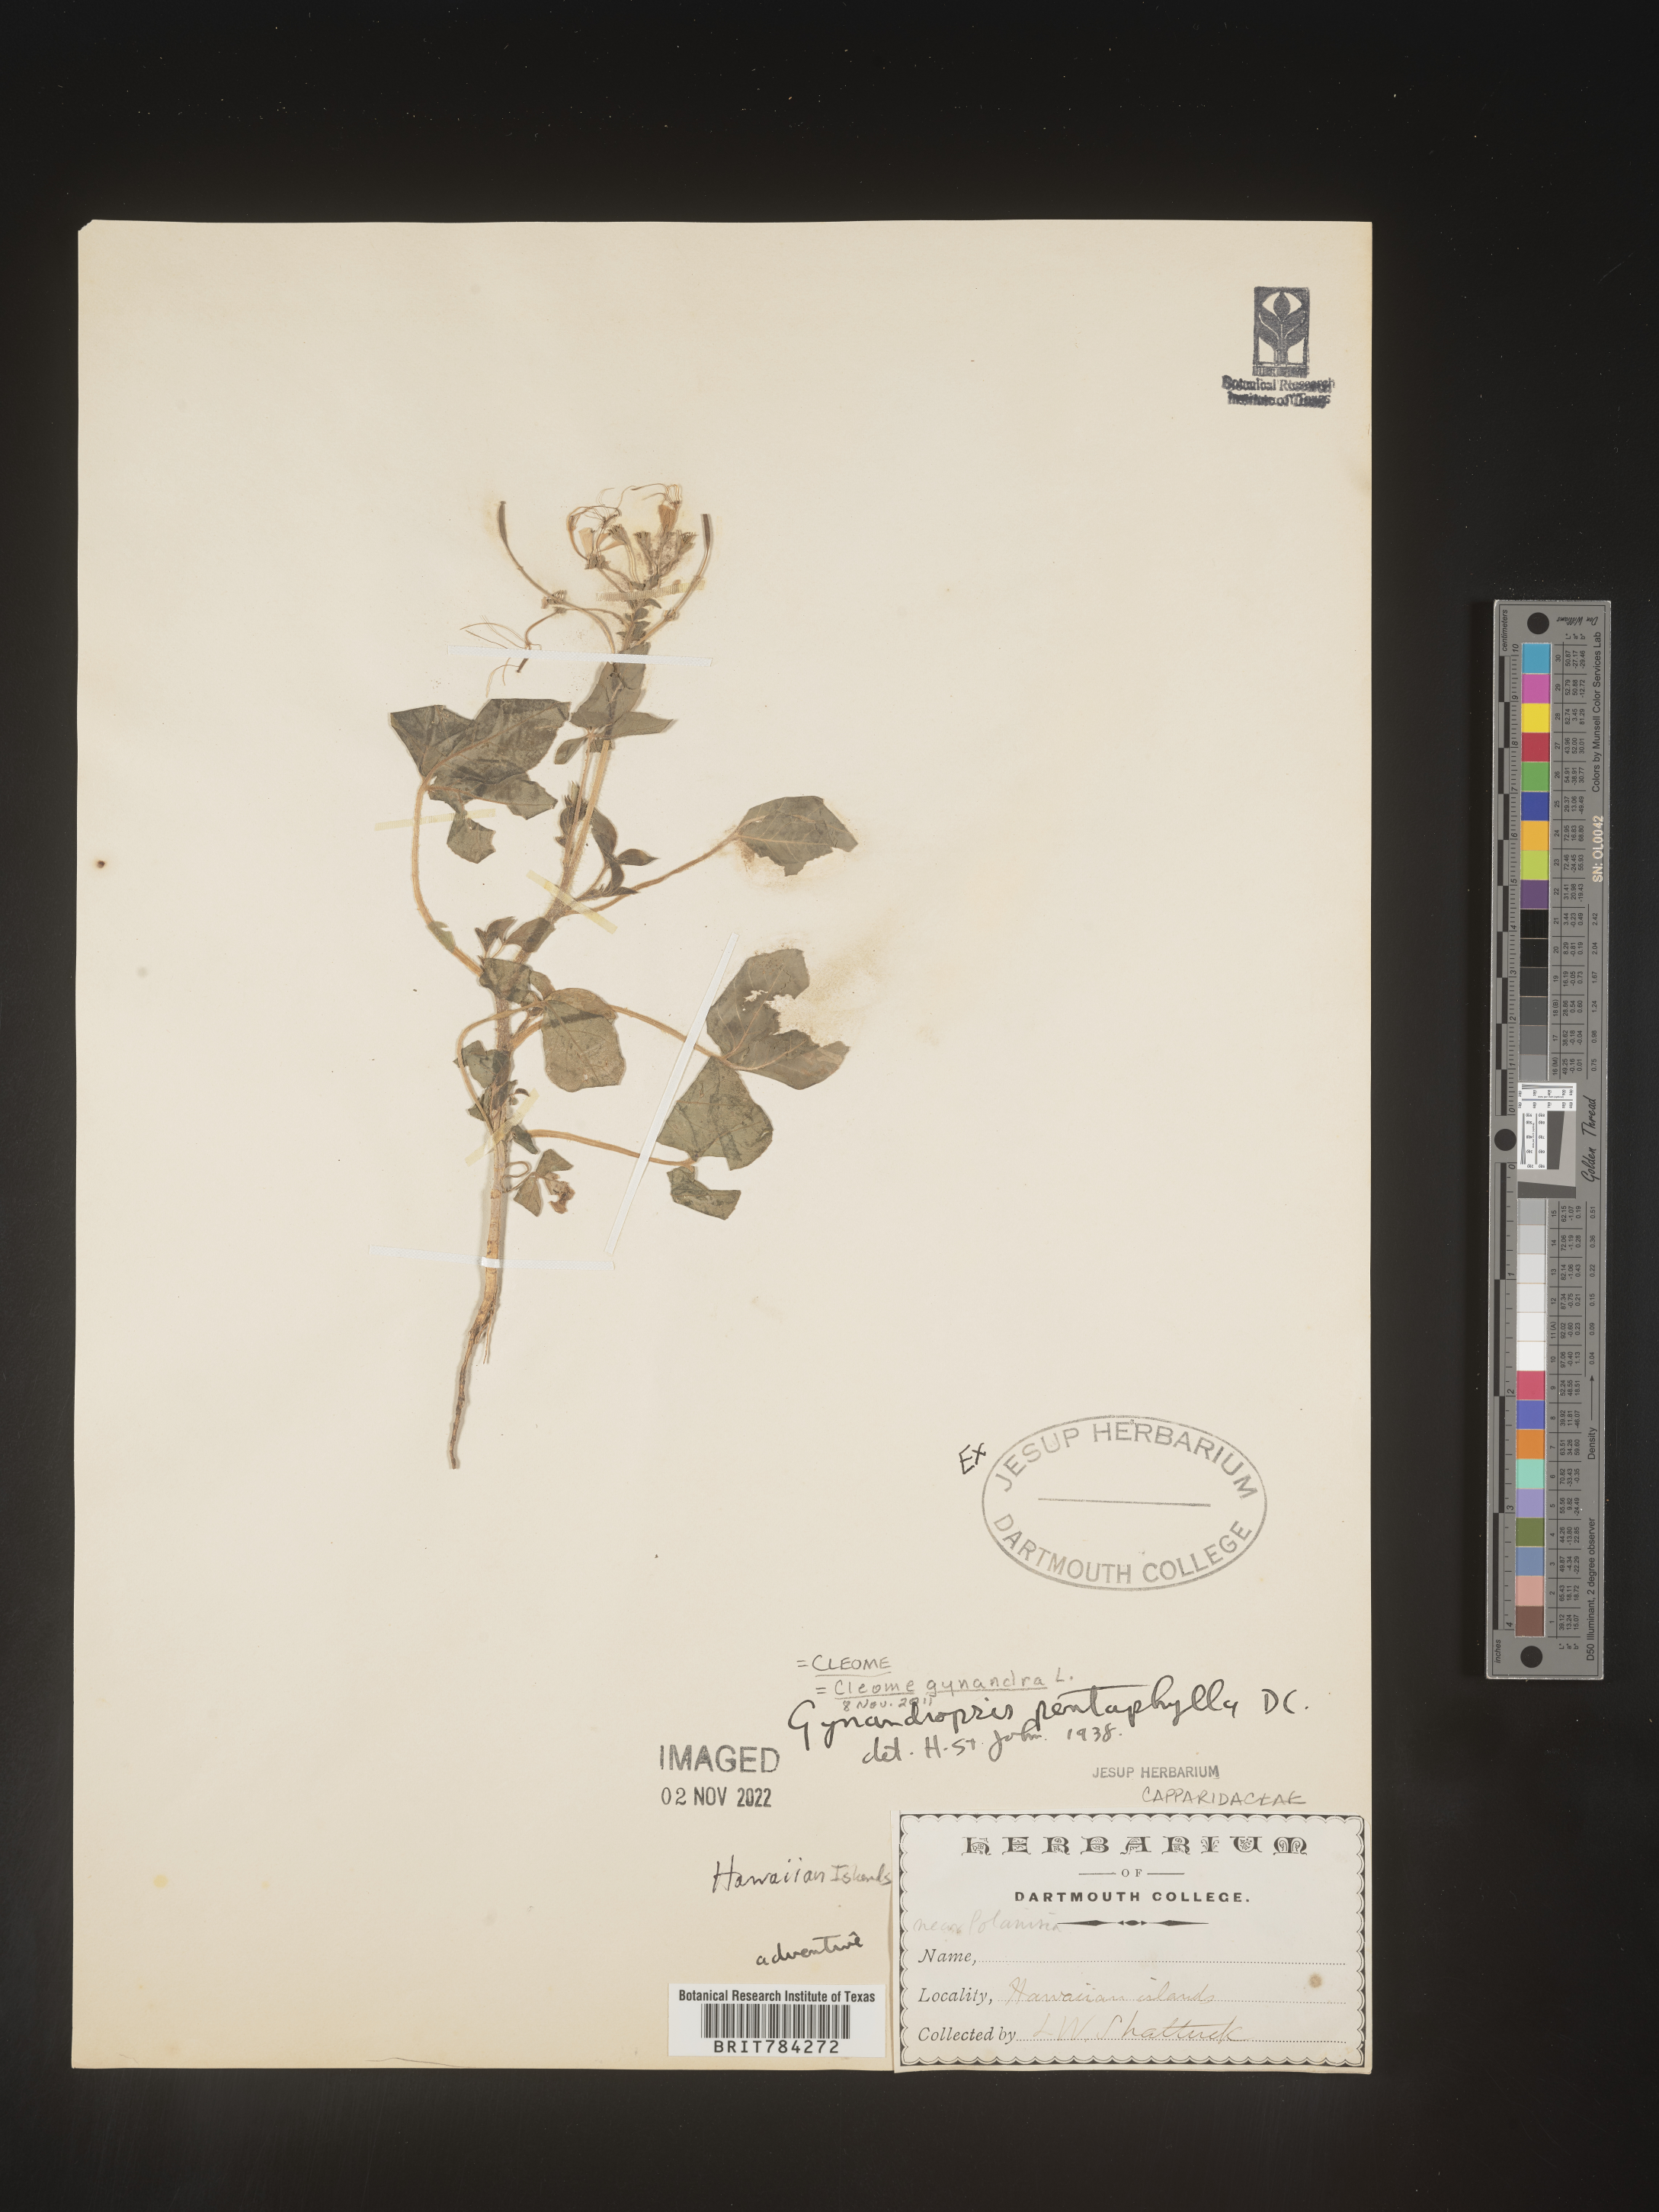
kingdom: Plantae
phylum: Tracheophyta
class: Magnoliopsida
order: Brassicales
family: Cleomaceae
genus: Cleome
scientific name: Cleome
